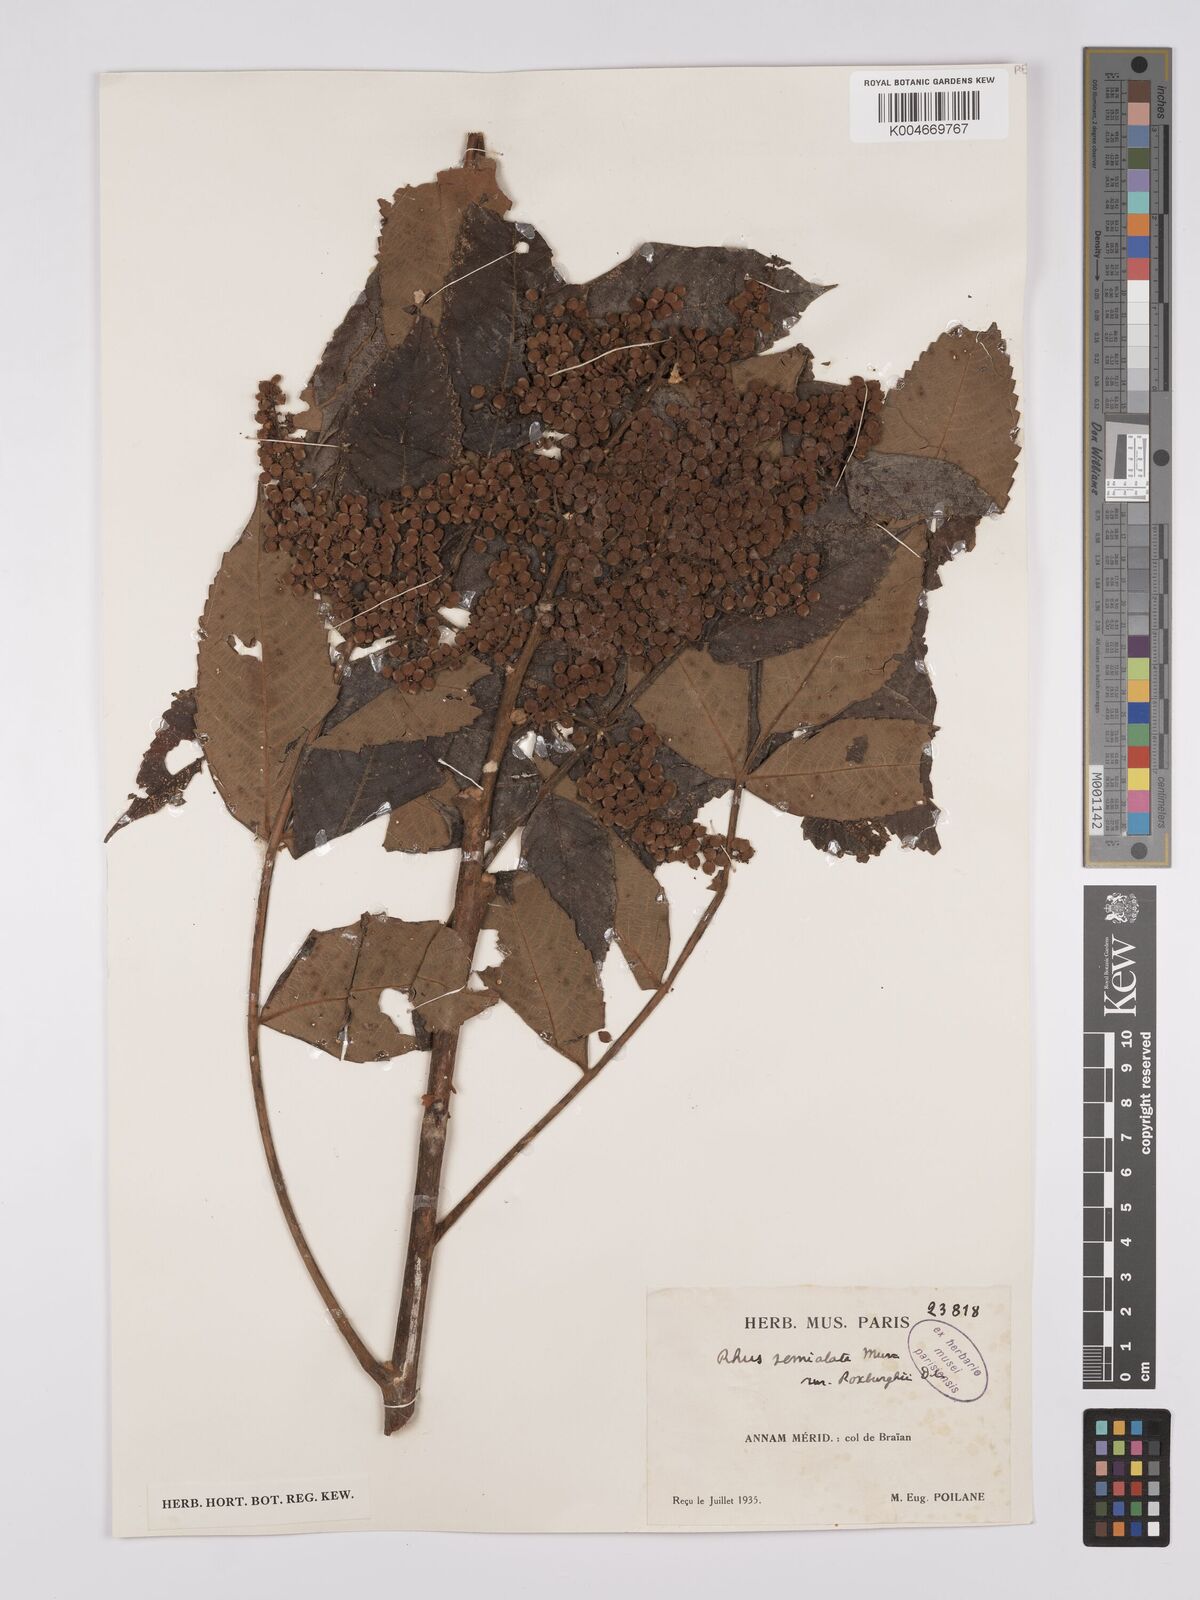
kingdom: Plantae
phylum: Tracheophyta
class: Magnoliopsida
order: Sapindales
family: Anacardiaceae
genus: Rhus
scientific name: Rhus chinensis
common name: Chinese gall
